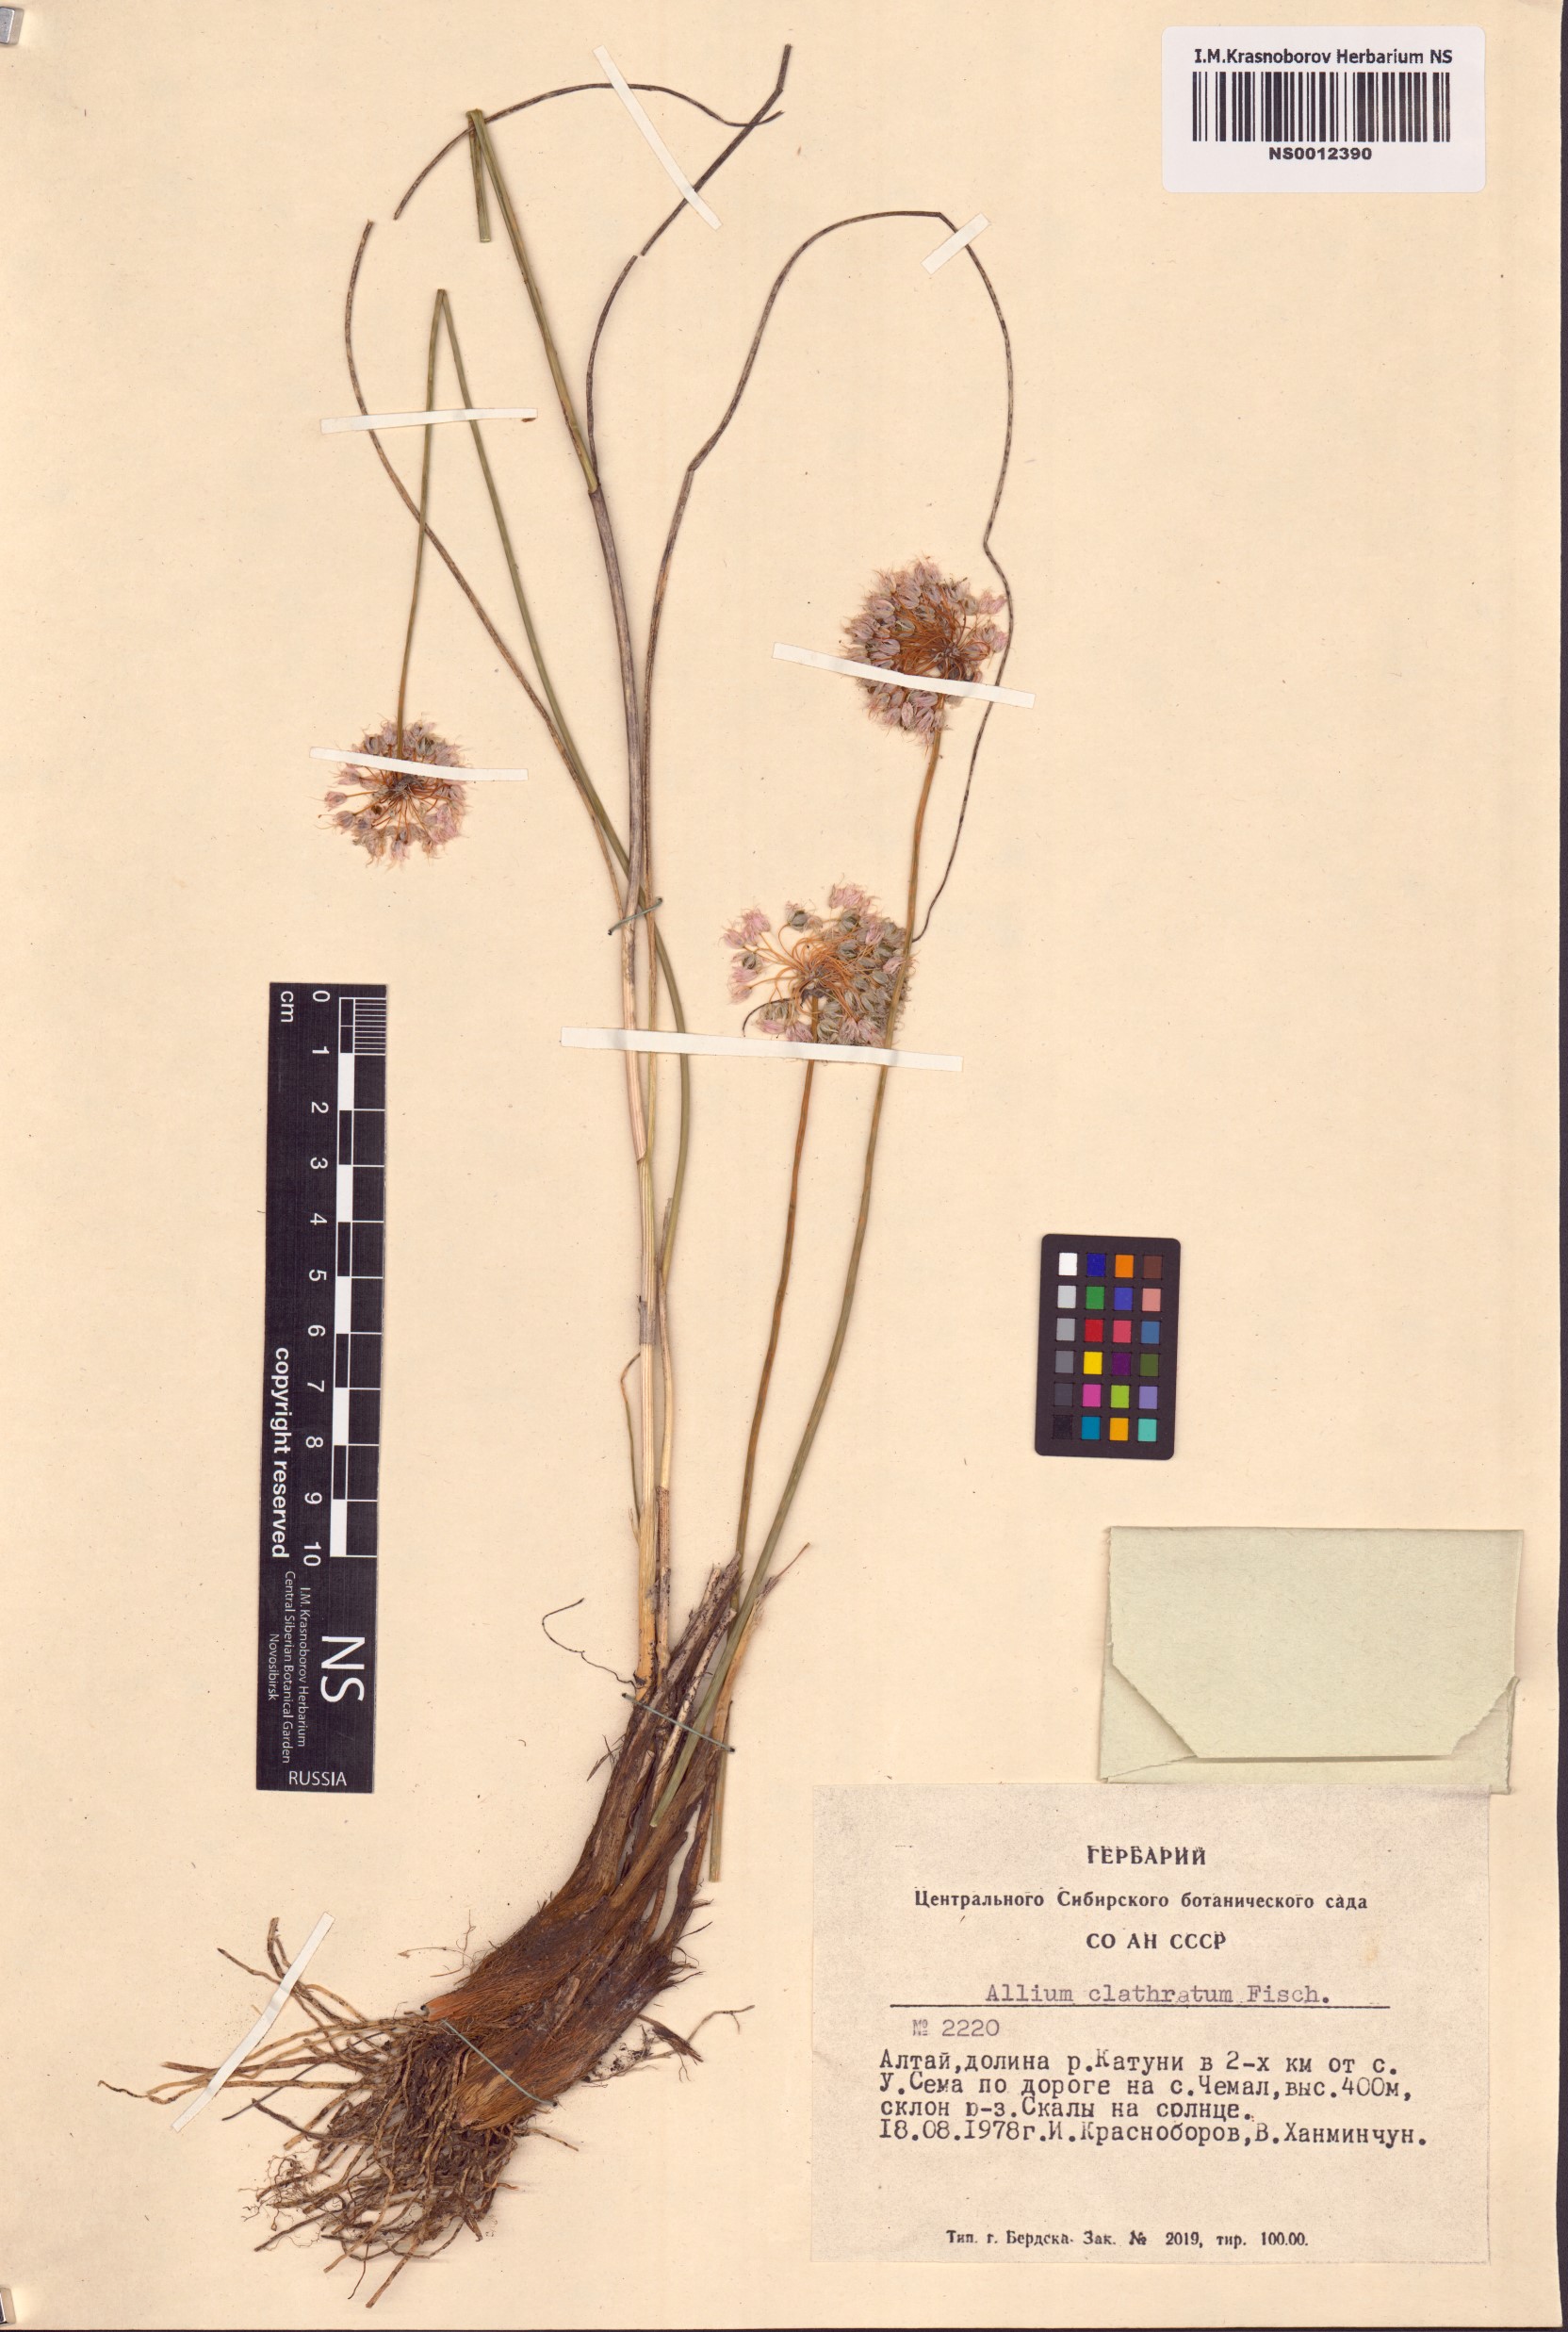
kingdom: Plantae
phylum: Tracheophyta
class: Liliopsida
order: Asparagales
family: Amaryllidaceae
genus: Allium
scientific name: Allium clathratum
